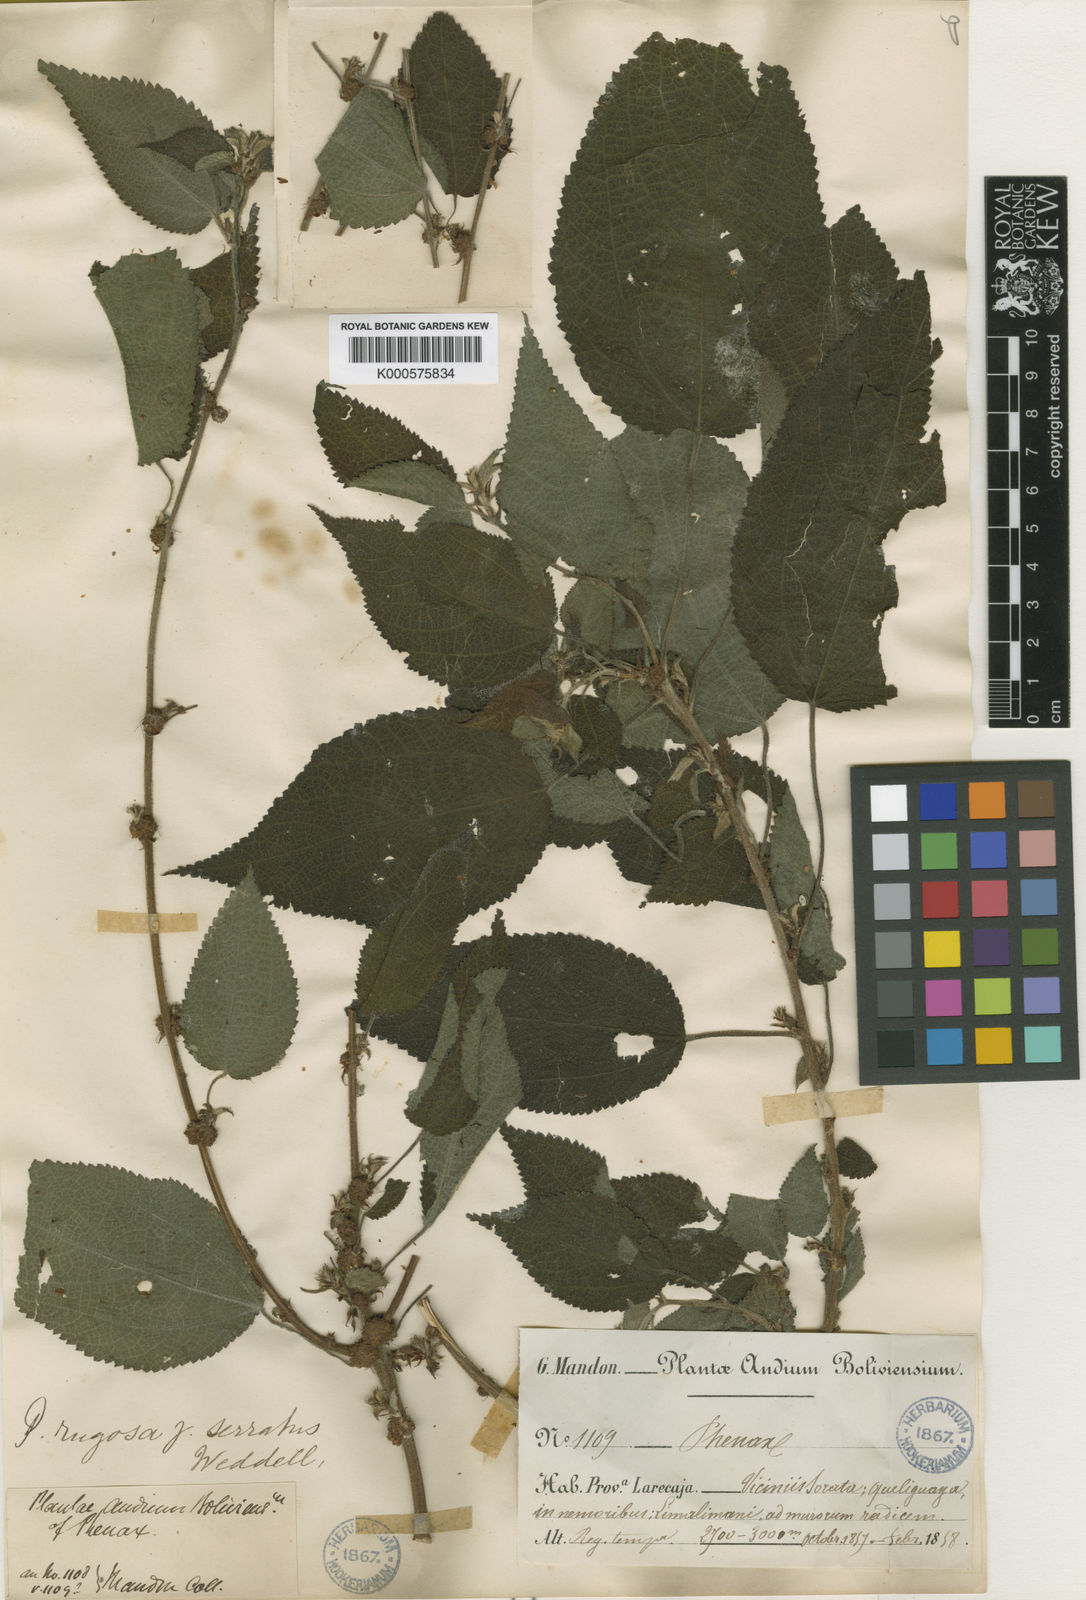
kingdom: Plantae
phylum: Tracheophyta
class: Magnoliopsida
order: Rosales
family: Urticaceae
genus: Phenax
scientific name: Phenax rugosus
